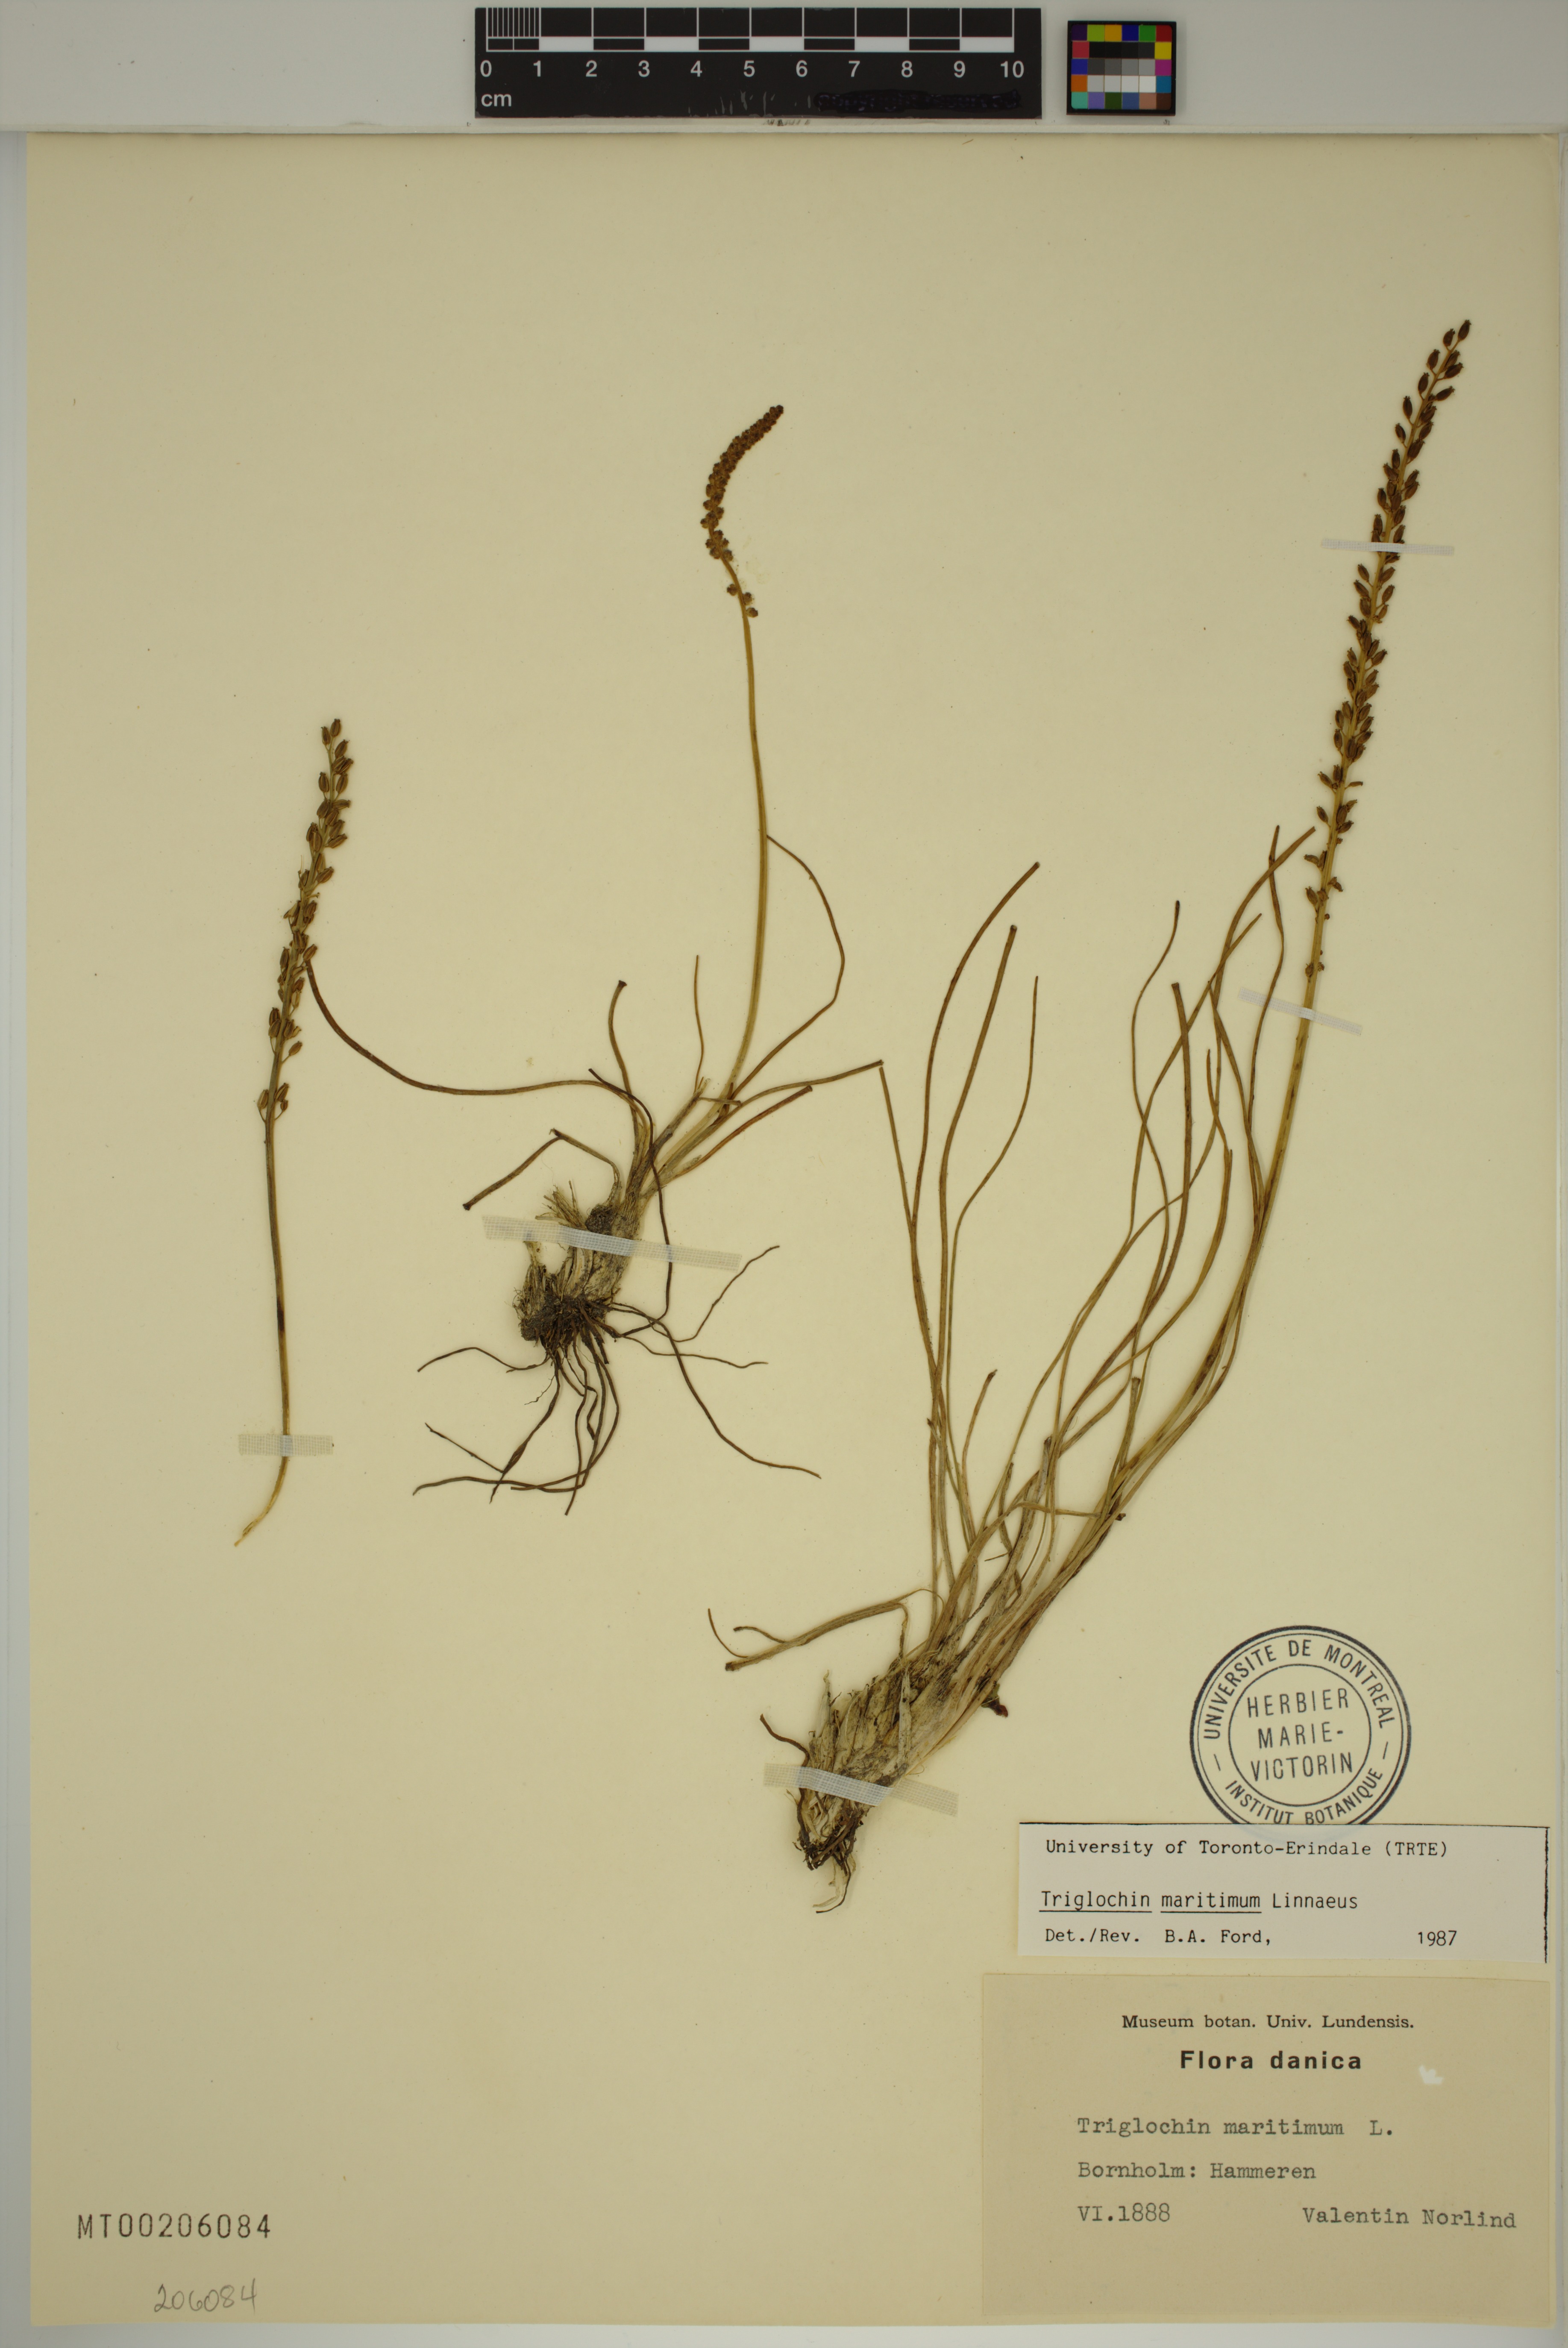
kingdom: Plantae
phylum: Tracheophyta
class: Liliopsida
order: Alismatales
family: Juncaginaceae
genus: Triglochin
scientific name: Triglochin maritima
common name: Sea arrowgrass
